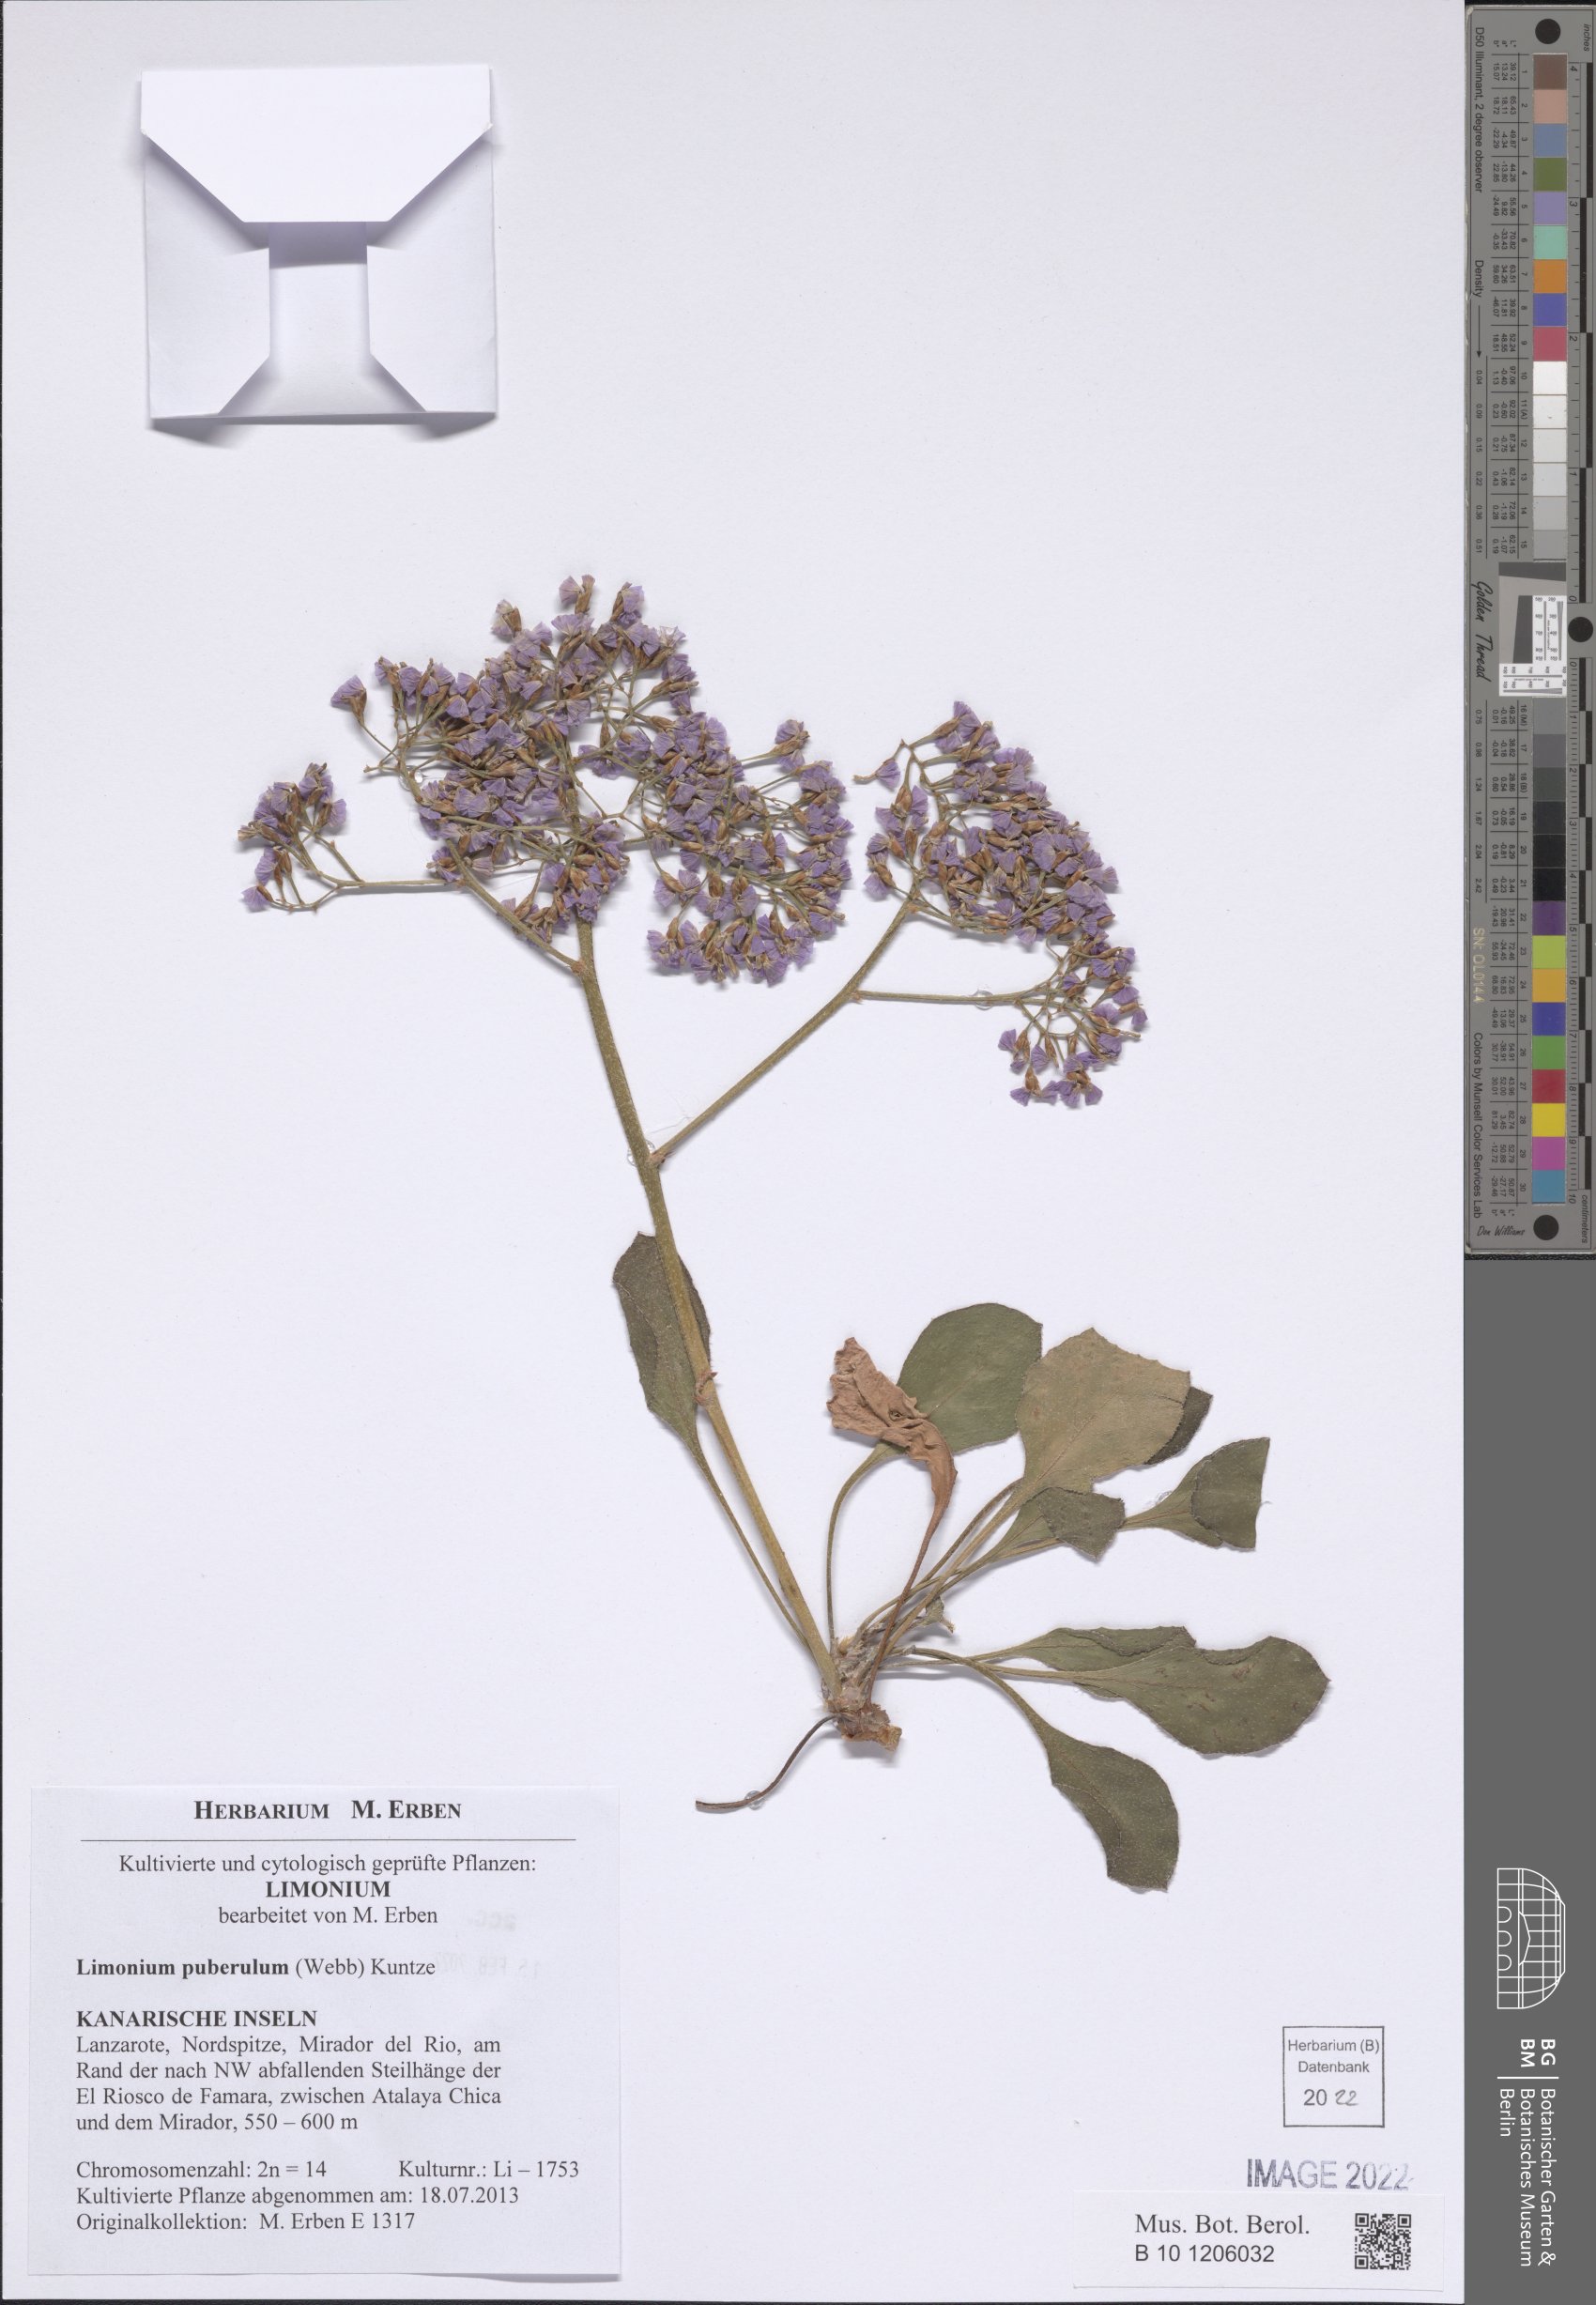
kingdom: Plantae
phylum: Tracheophyta
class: Magnoliopsida
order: Caryophyllales
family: Plumbaginaceae
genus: Limonium
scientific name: Limonium puberulum
